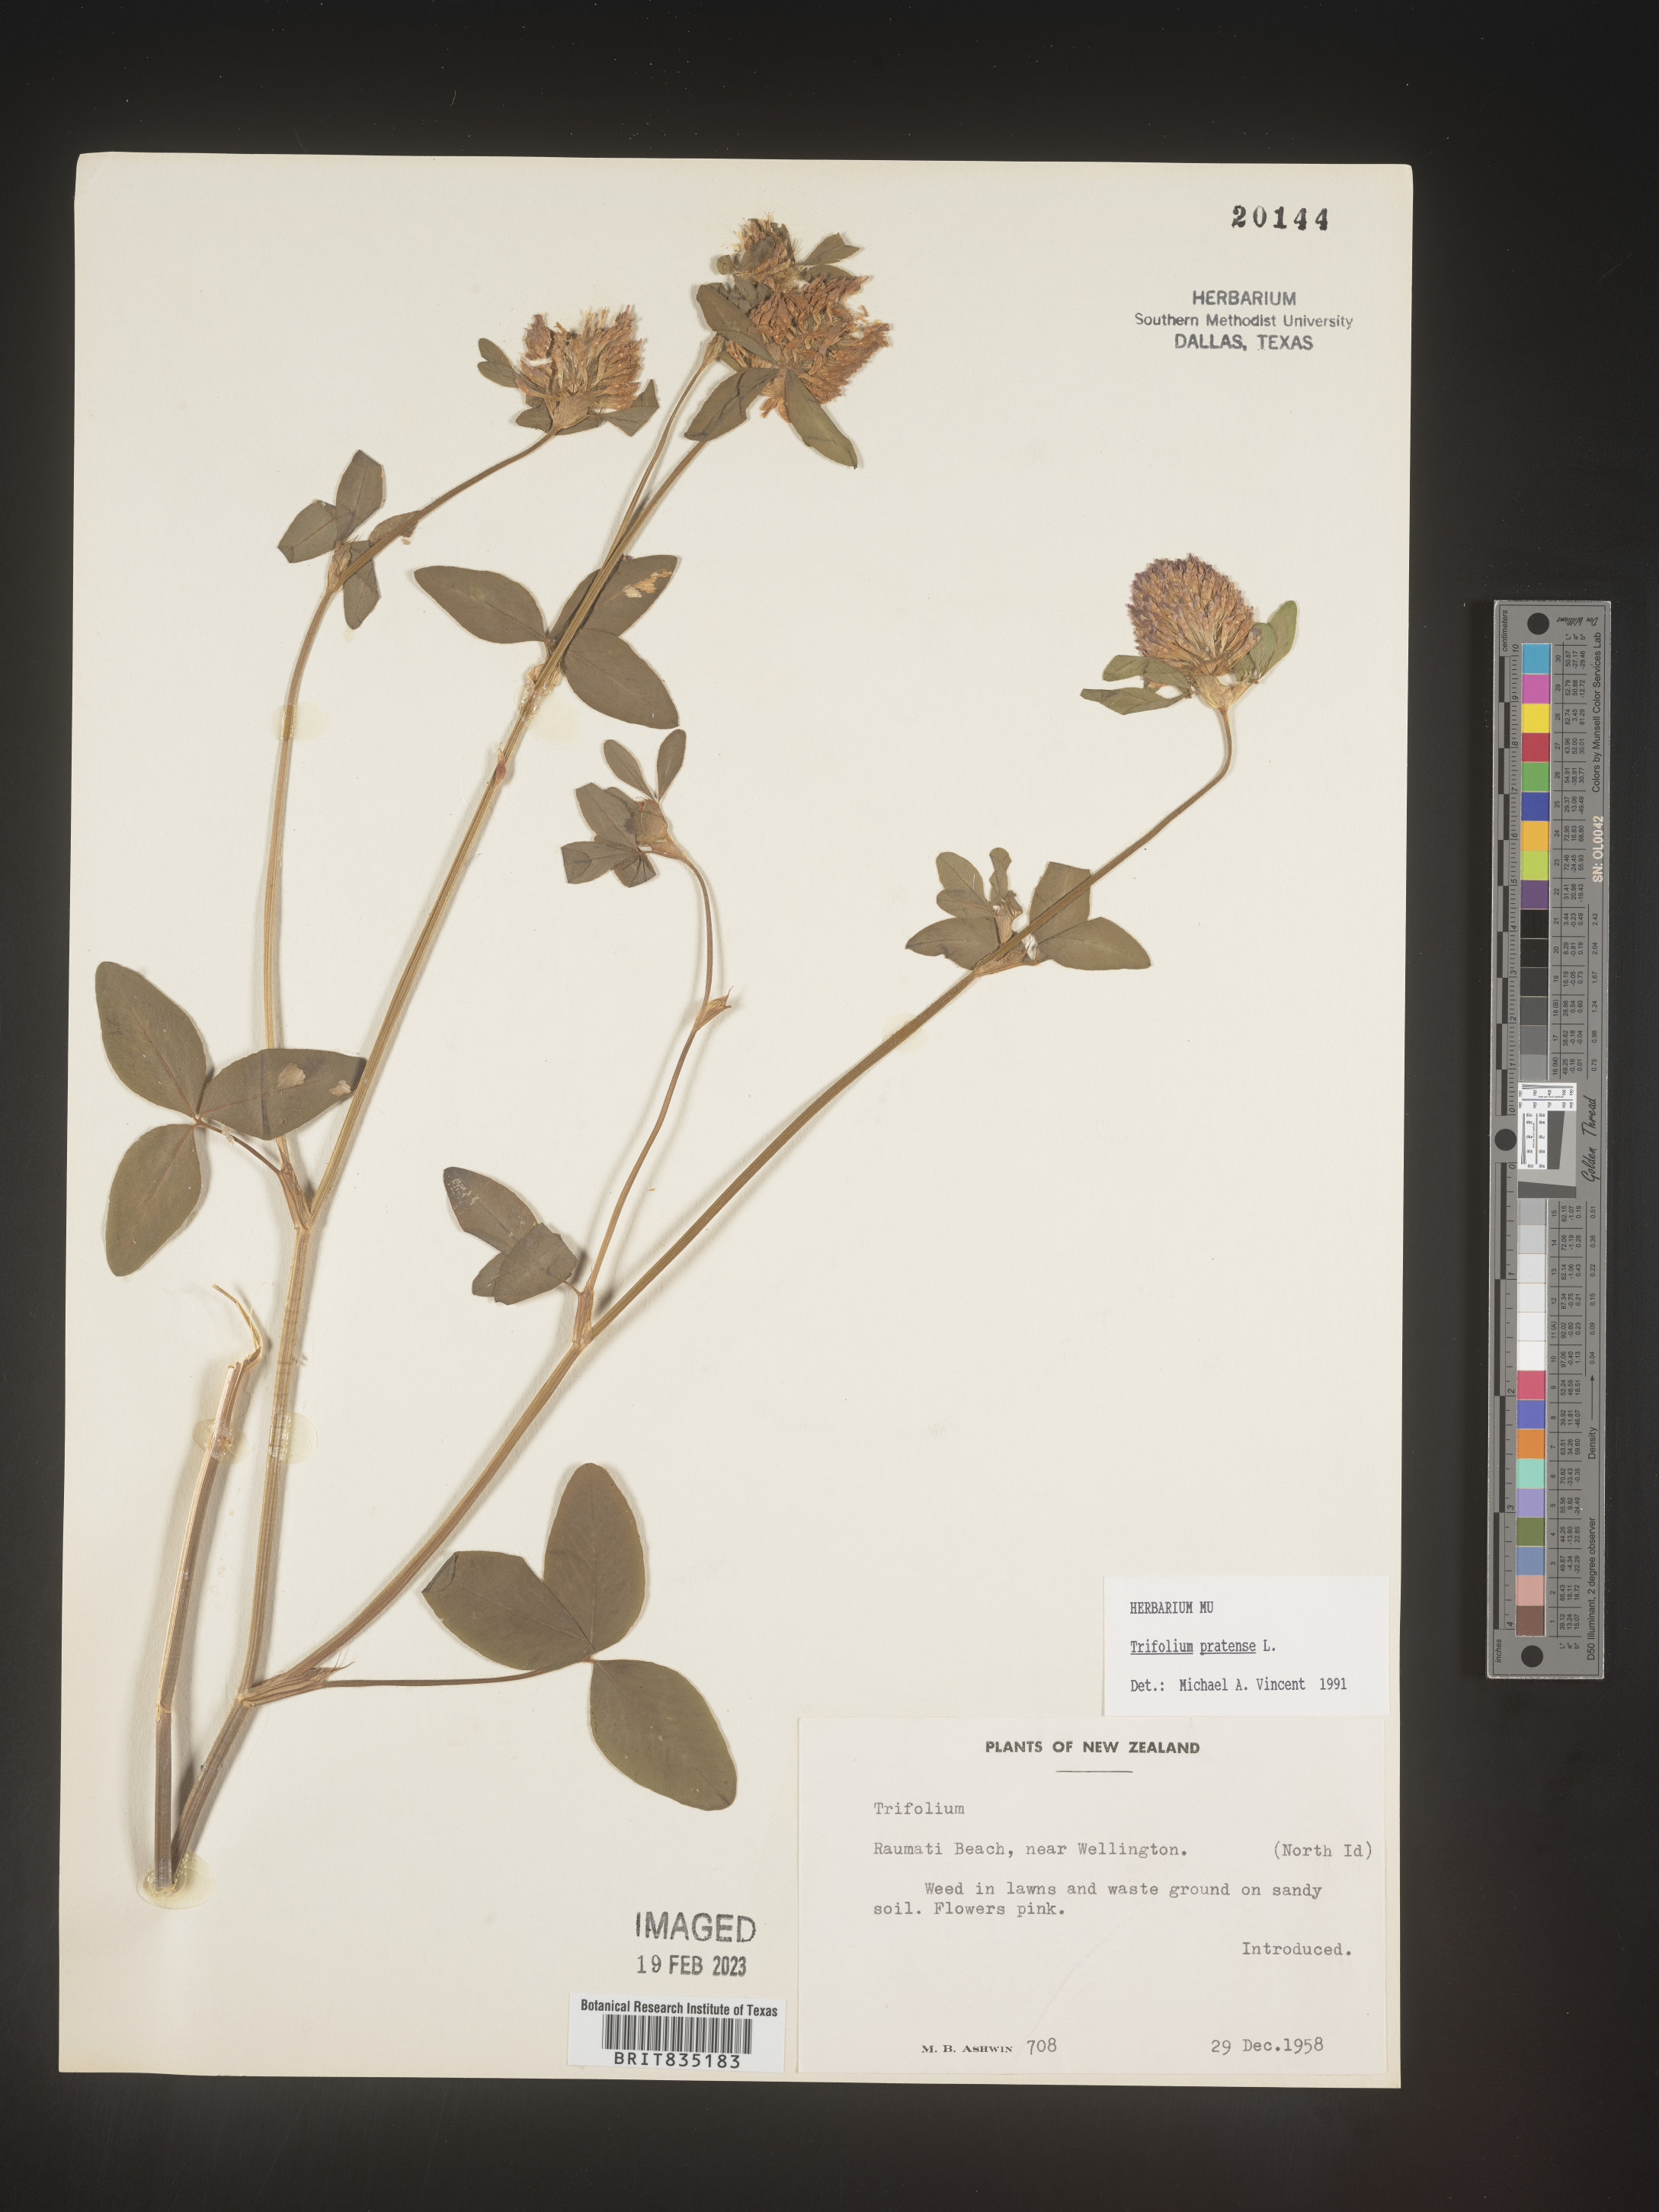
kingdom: Plantae
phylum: Tracheophyta
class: Magnoliopsida
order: Fabales
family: Fabaceae
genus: Trifolium
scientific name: Trifolium
